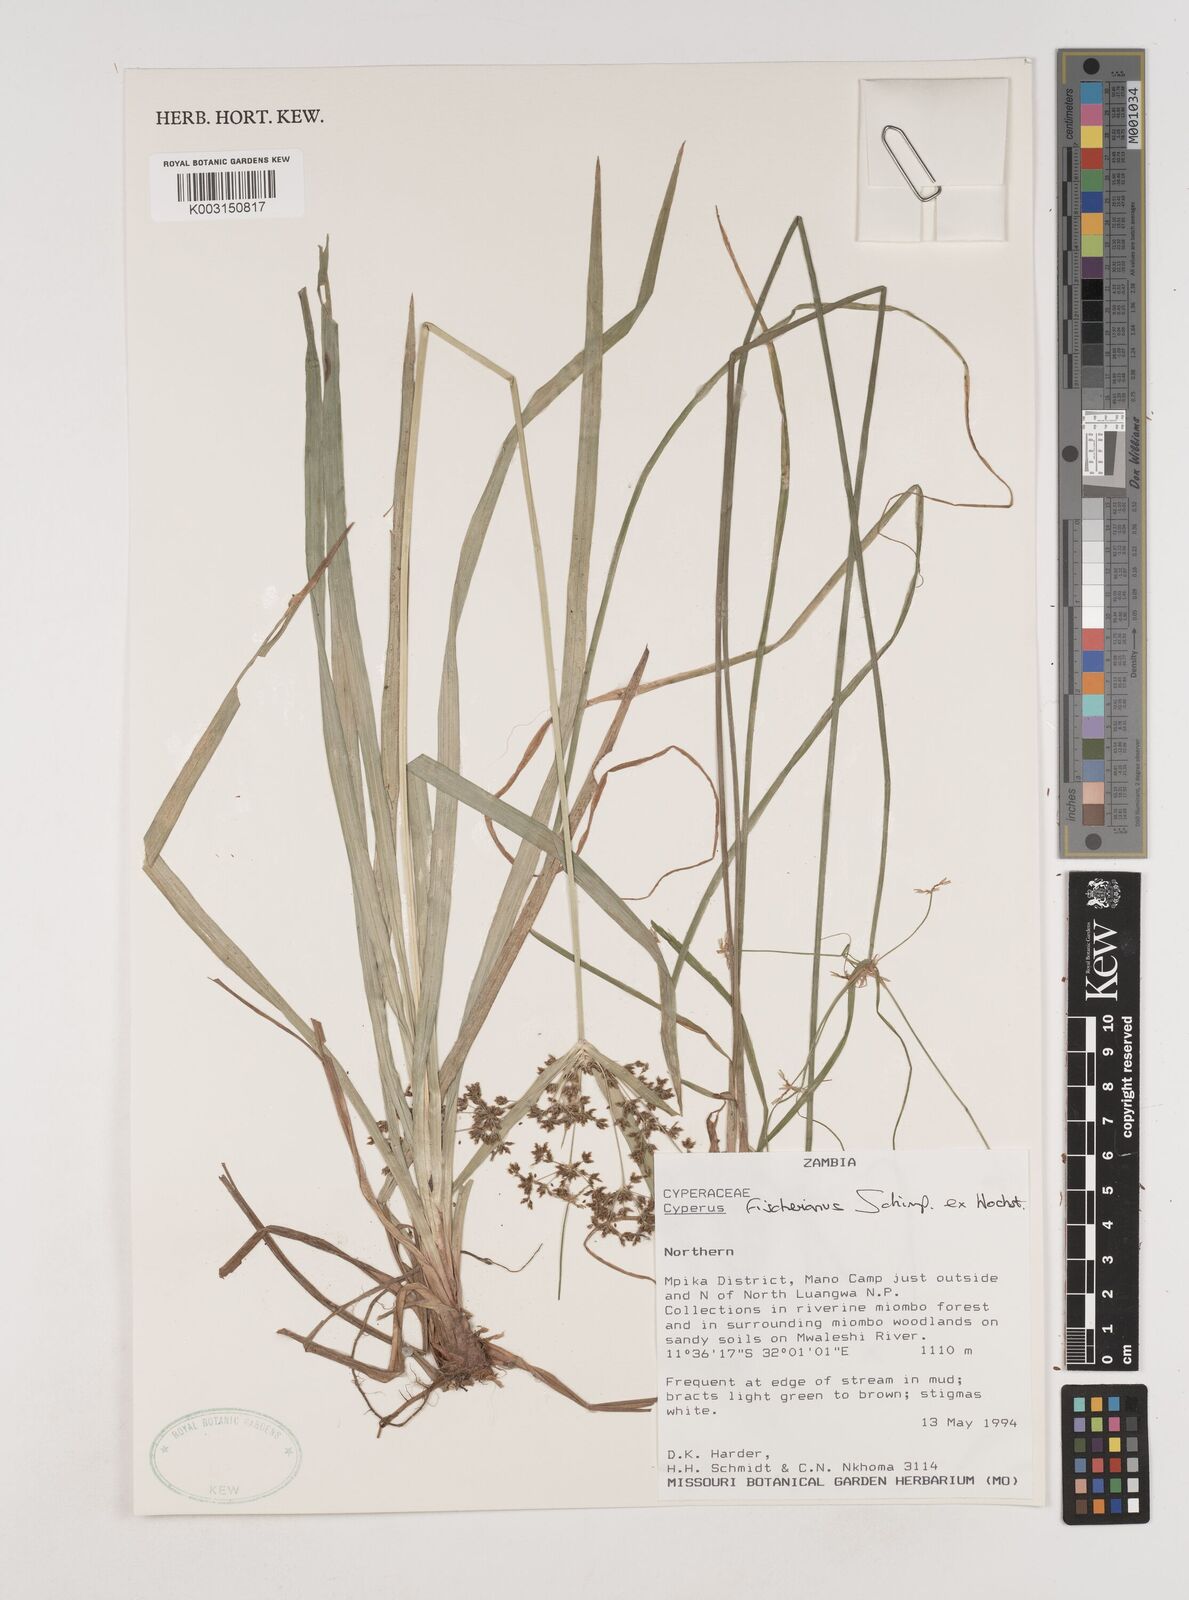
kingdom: Plantae
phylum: Tracheophyta
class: Liliopsida
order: Poales
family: Cyperaceae
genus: Cyperus
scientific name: Cyperus fischerianus
